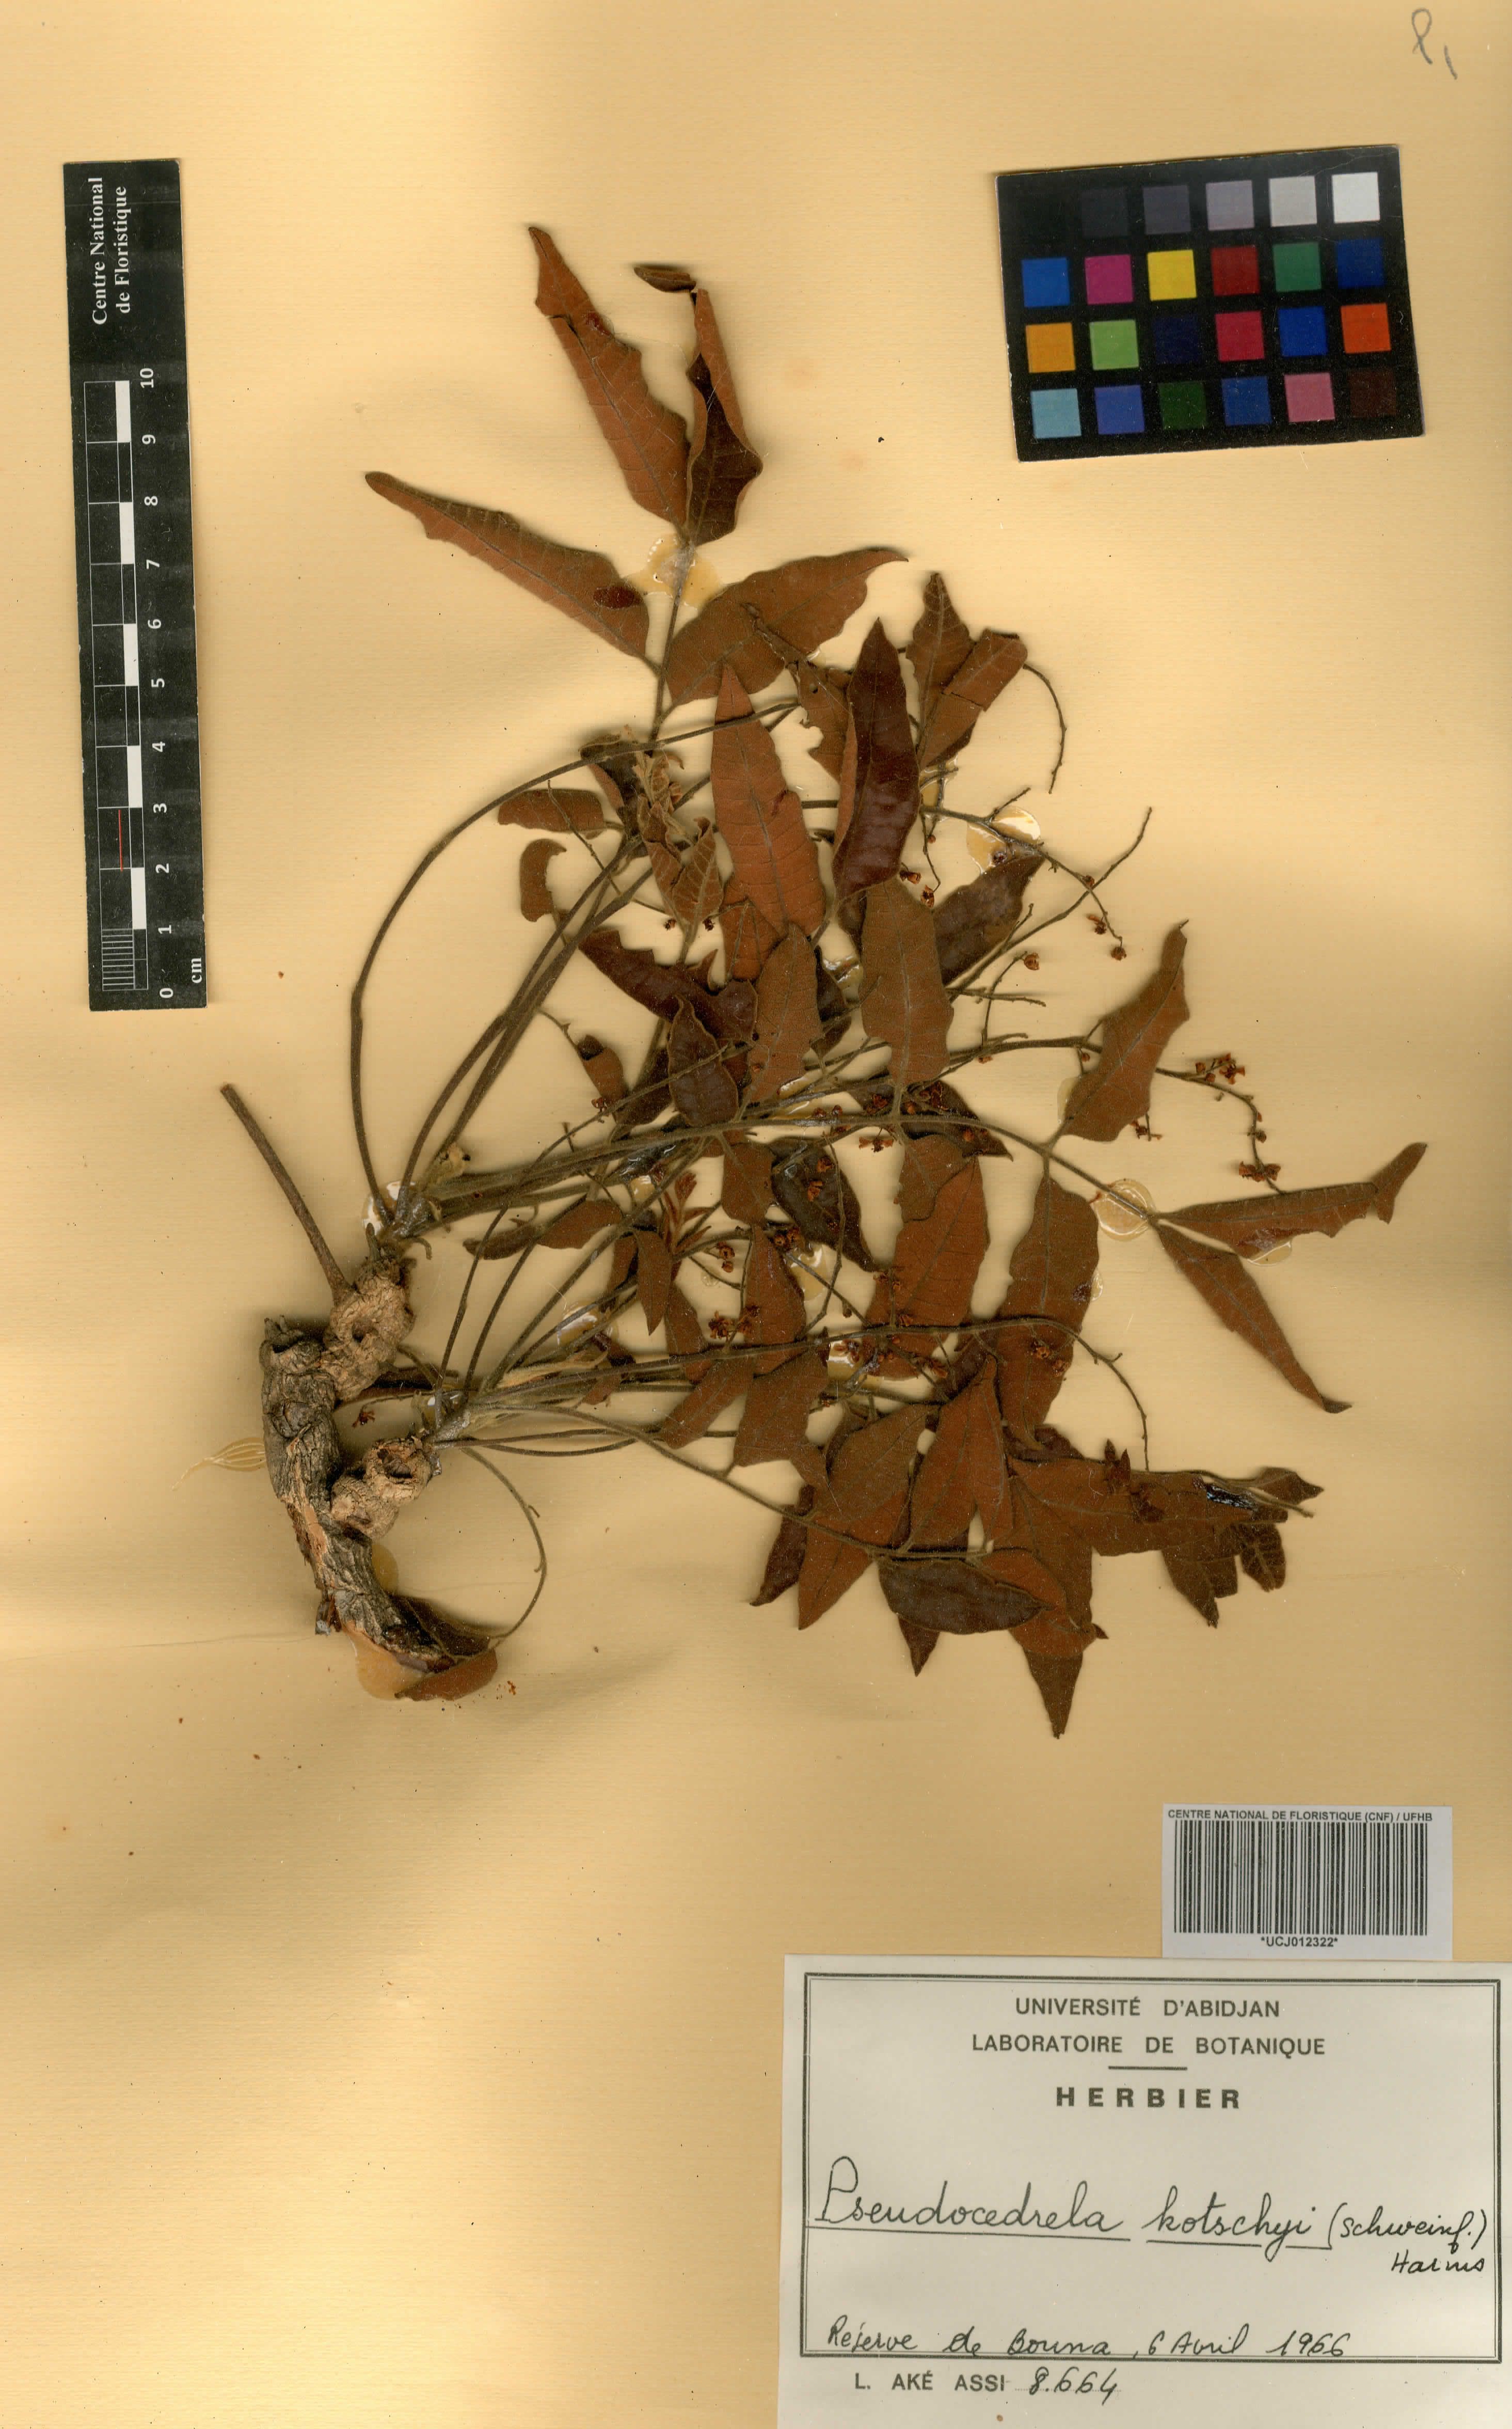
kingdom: Plantae
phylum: Tracheophyta
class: Magnoliopsida
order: Sapindales
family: Meliaceae
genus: Pseudocedrela
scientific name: Pseudocedrela kotschyi
